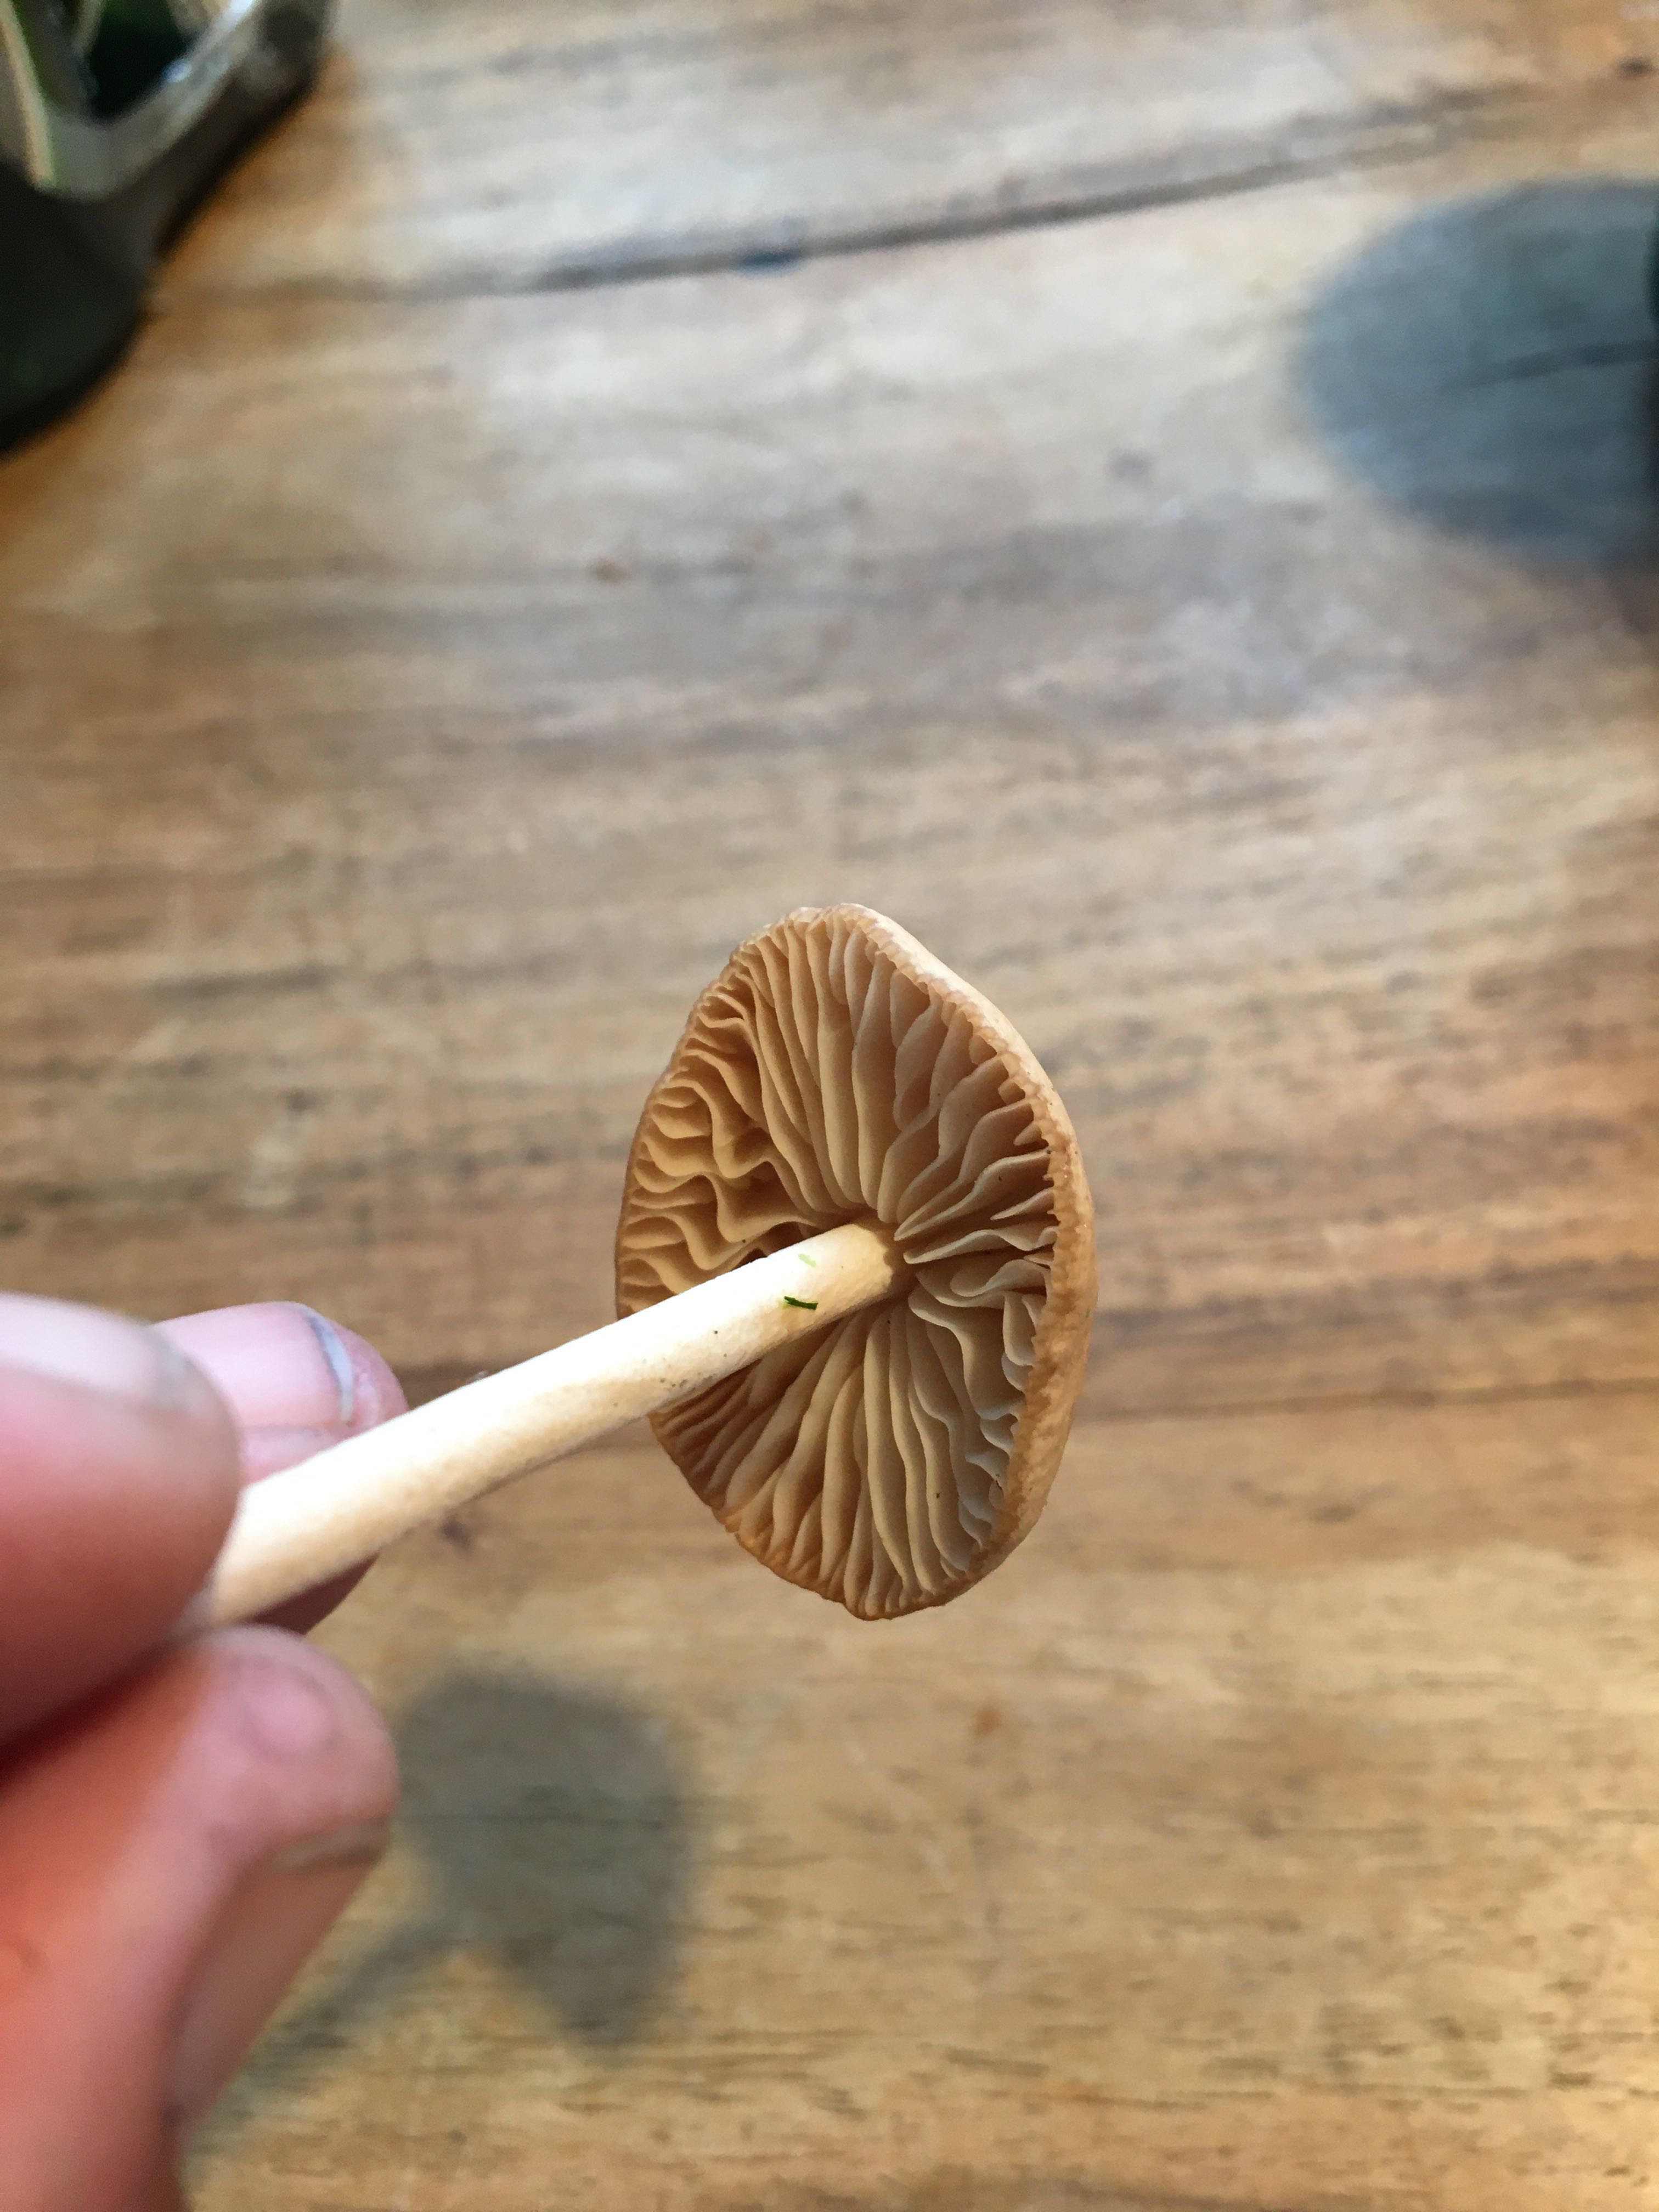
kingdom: Fungi
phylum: Basidiomycota
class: Agaricomycetes
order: Agaricales
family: Marasmiaceae
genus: Marasmius
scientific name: Marasmius oreades
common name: elledans-bruskhat
